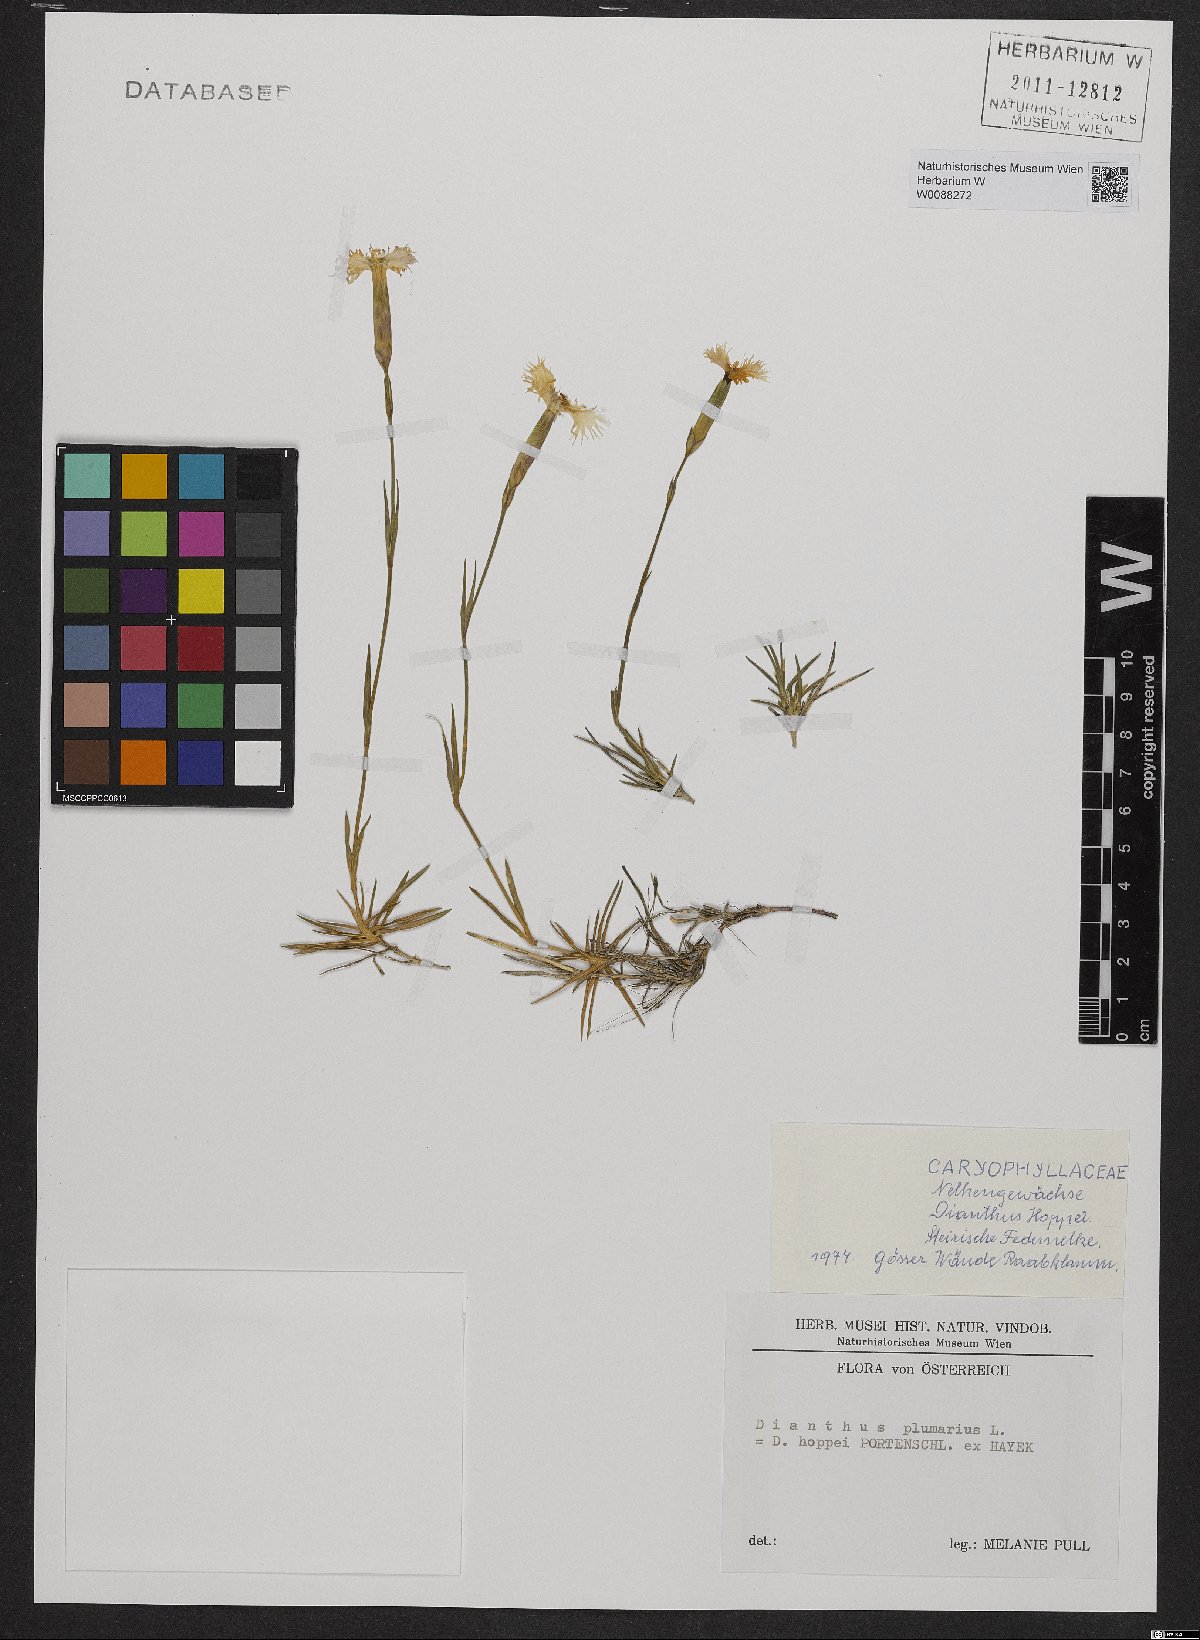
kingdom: Plantae
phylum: Tracheophyta
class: Magnoliopsida
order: Caryophyllales
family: Caryophyllaceae
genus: Dianthus
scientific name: Dianthus plumarius
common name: Pink
